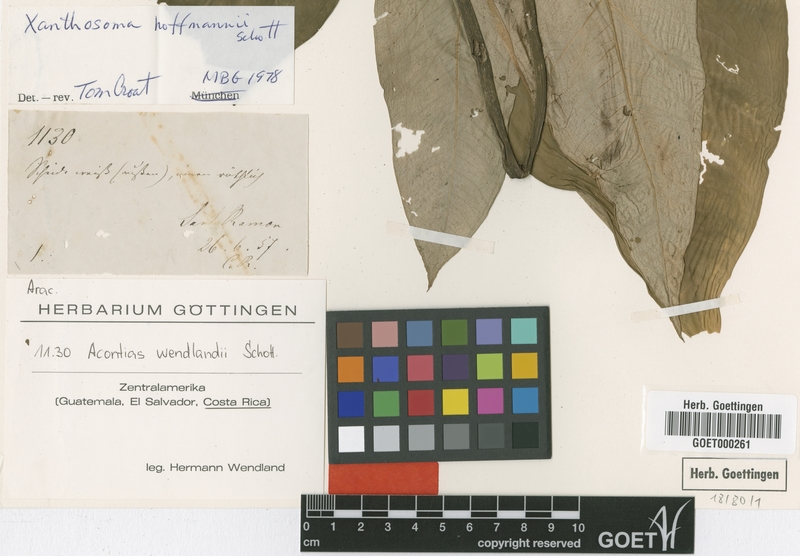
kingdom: Plantae
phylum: Tracheophyta
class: Liliopsida
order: Alismatales
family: Araceae
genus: Xanthosoma
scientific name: Xanthosoma wendlandii
